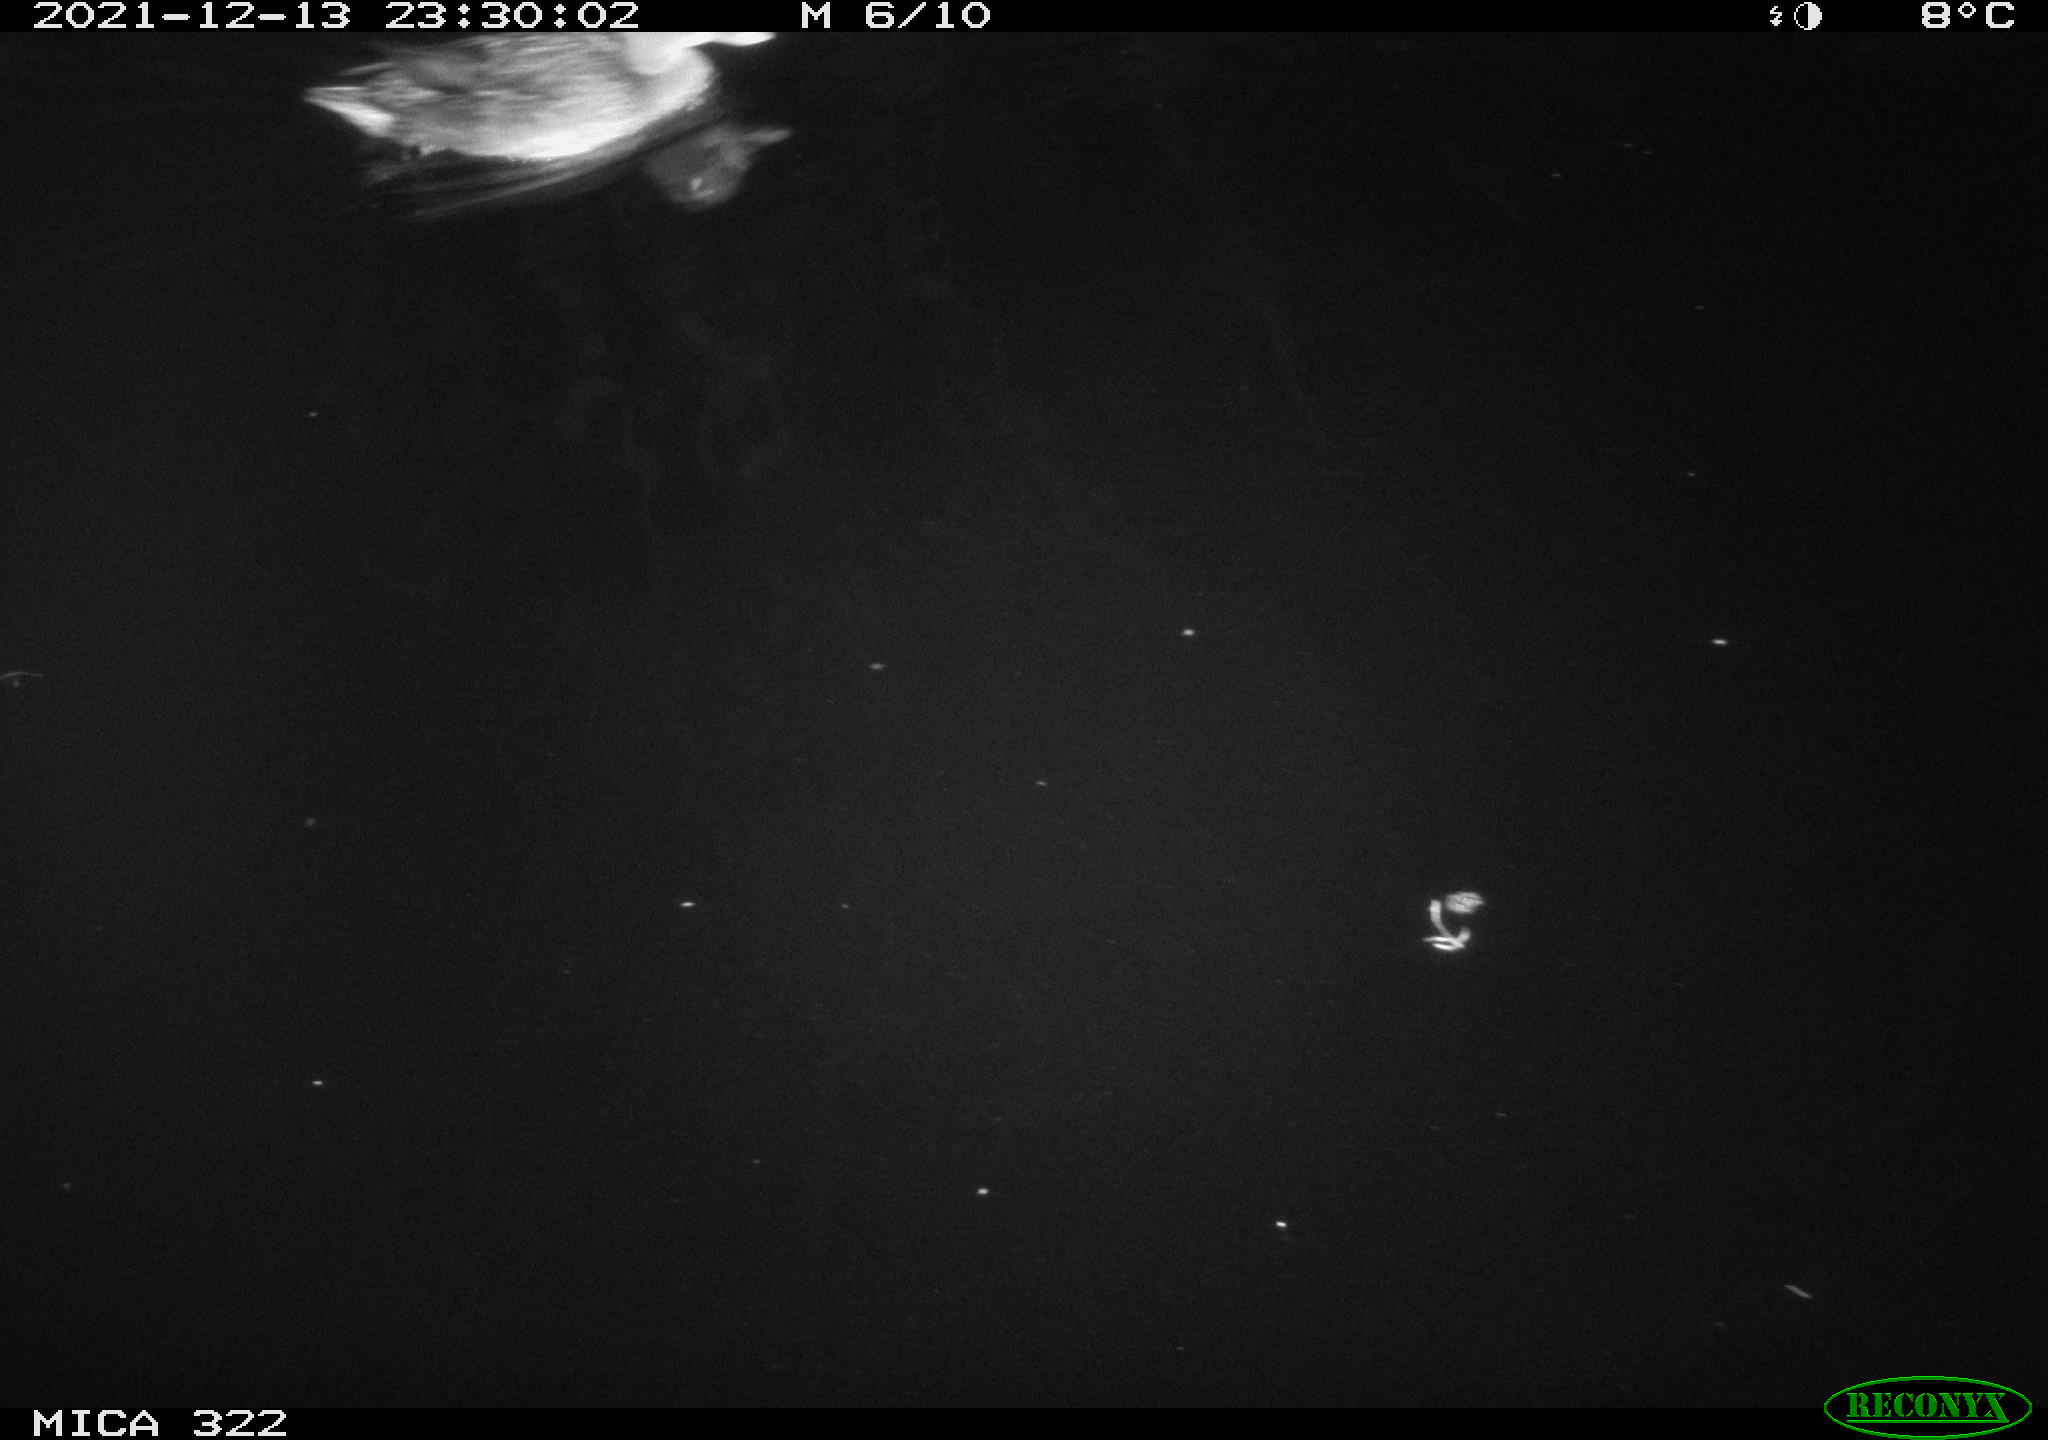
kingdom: Animalia
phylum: Chordata
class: Aves
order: Anseriformes
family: Anatidae
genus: Anas
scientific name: Anas
